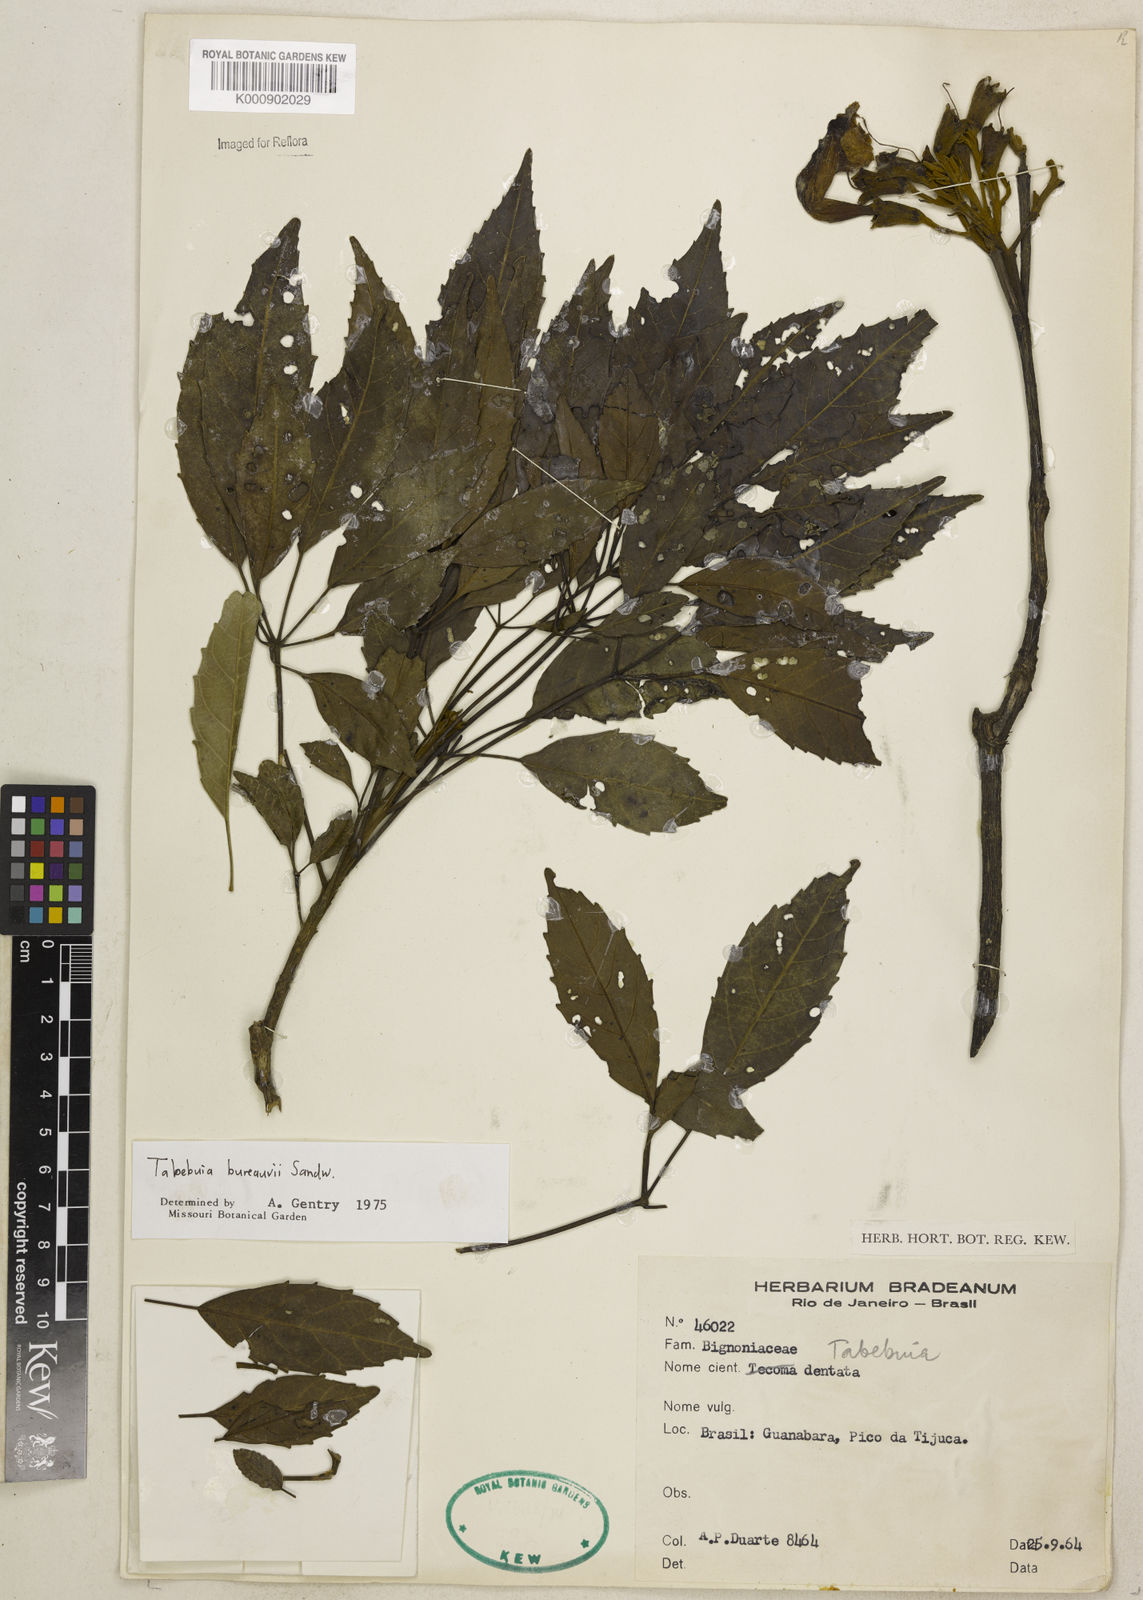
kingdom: Plantae
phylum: Tracheophyta
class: Magnoliopsida
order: Lamiales
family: Bignoniaceae
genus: Handroanthus
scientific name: Handroanthus bureavii
